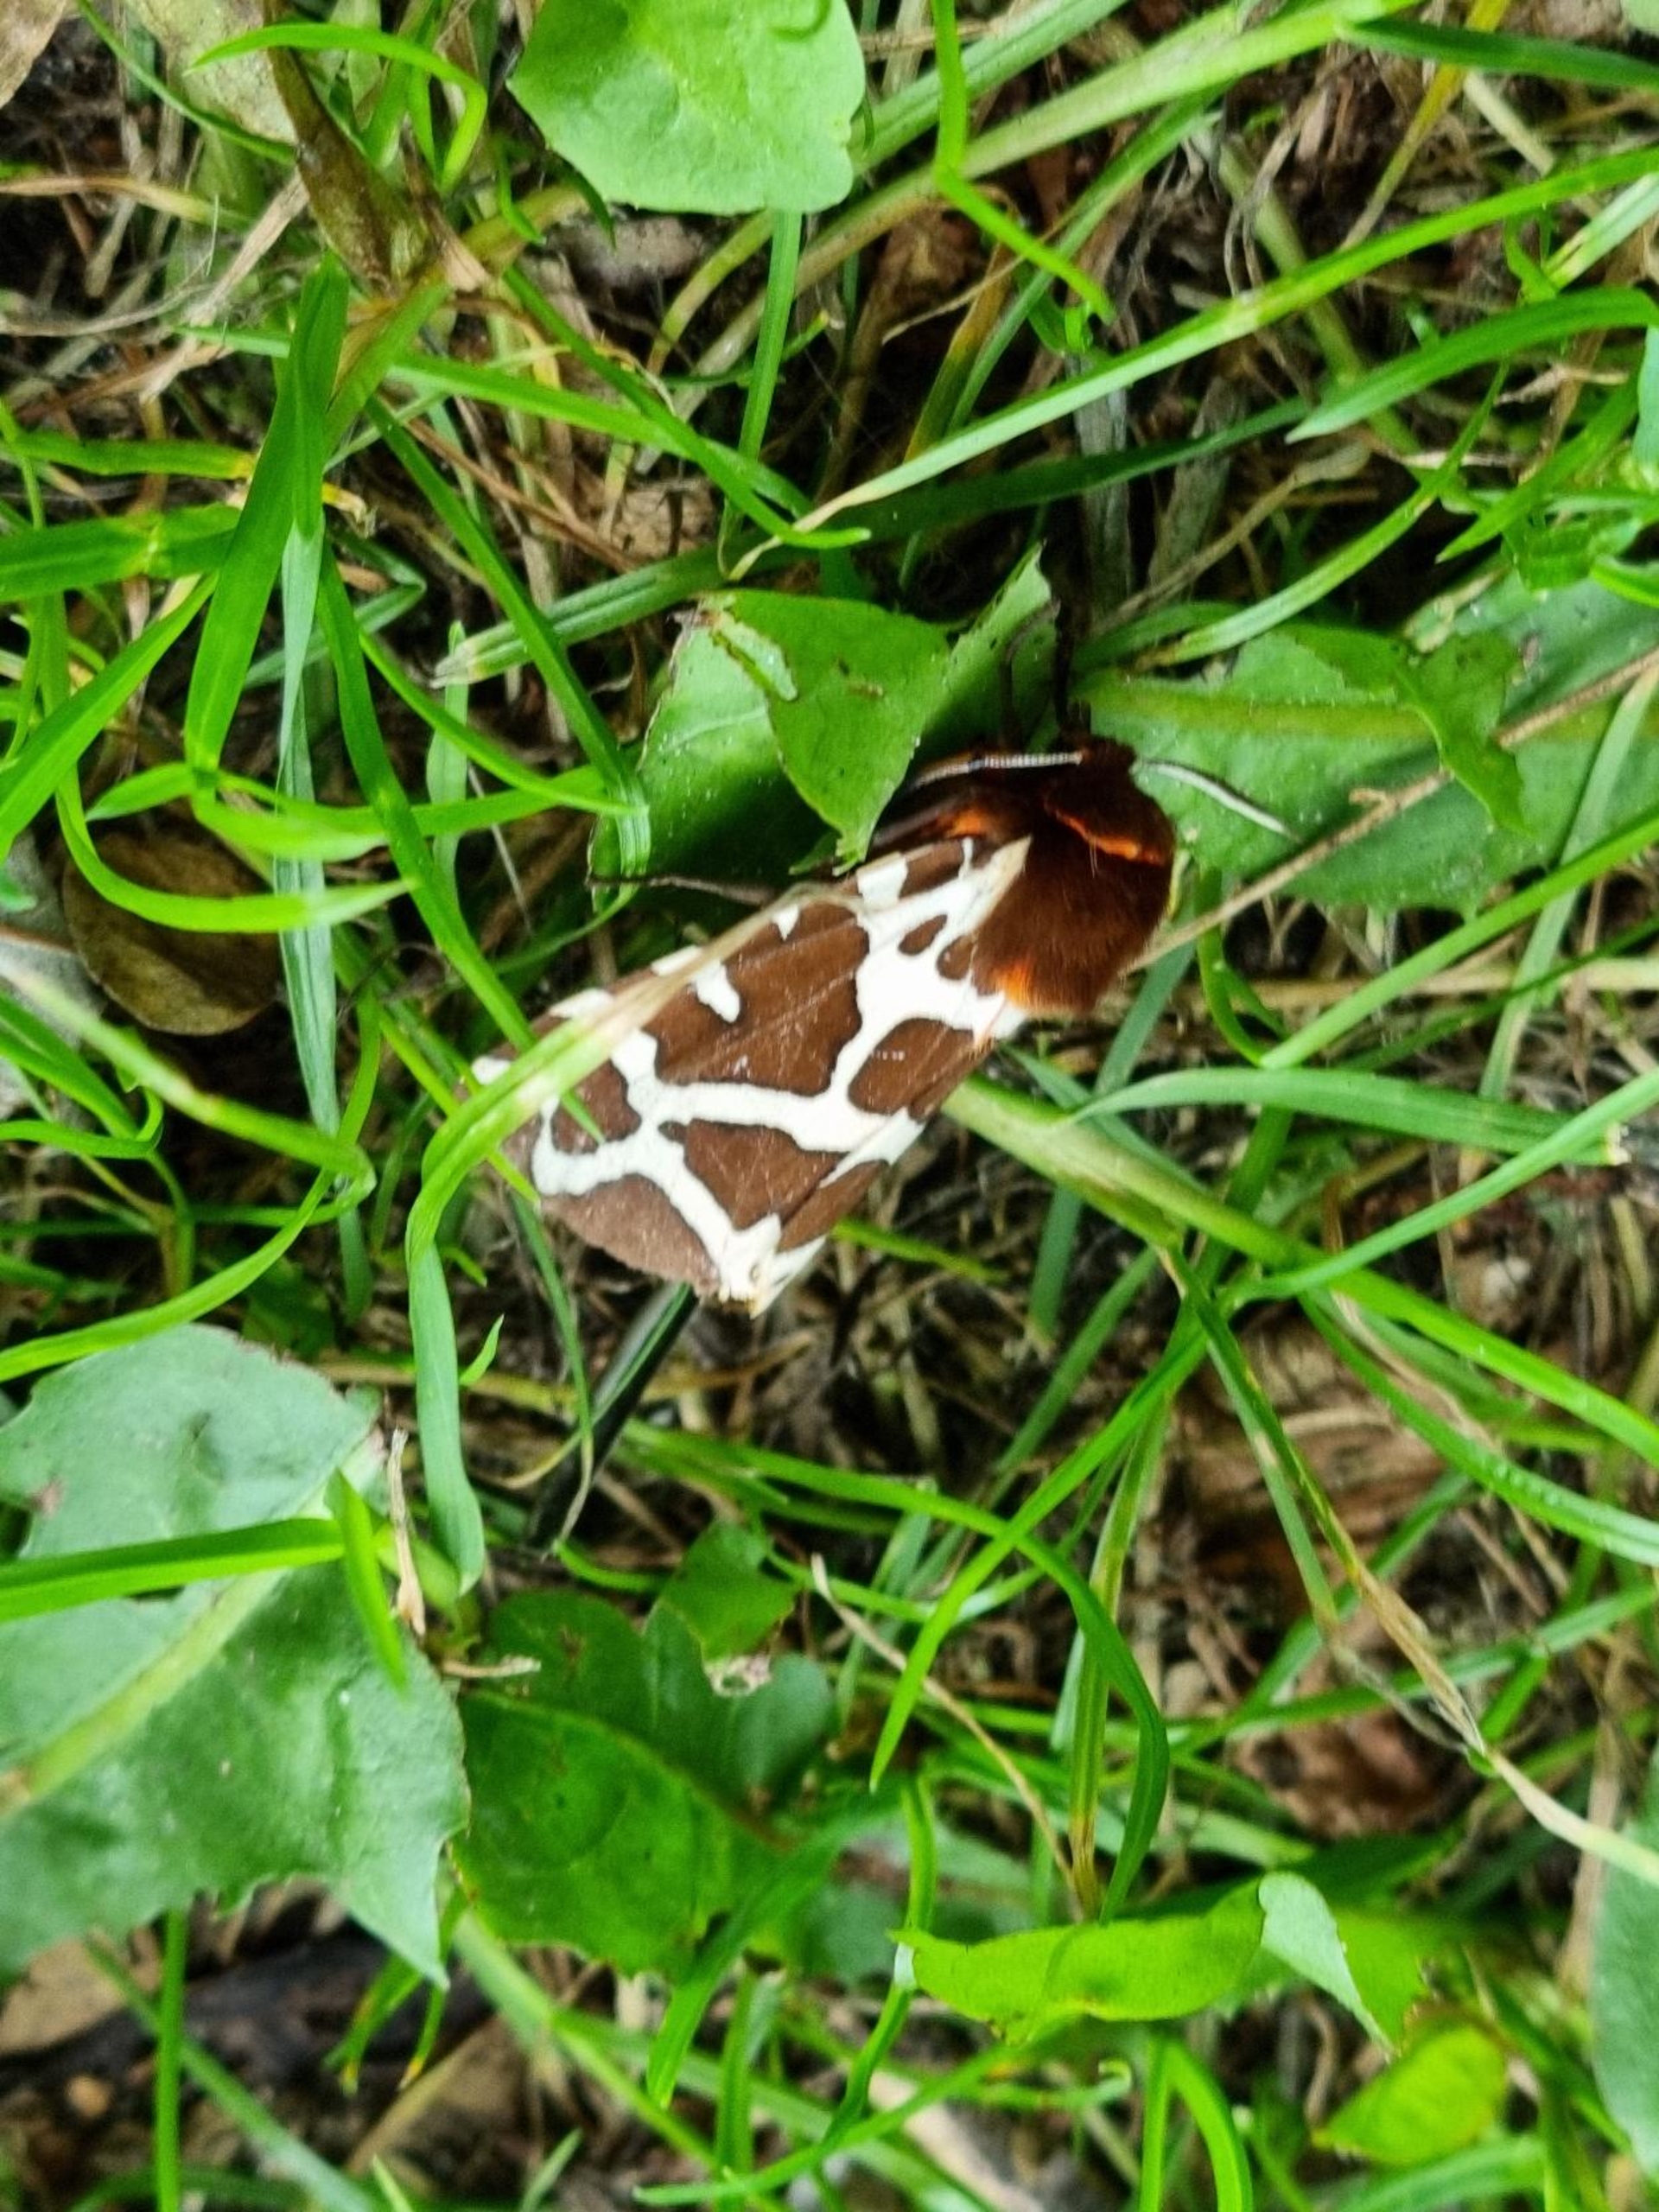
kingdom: Animalia
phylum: Arthropoda
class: Insecta
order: Lepidoptera
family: Erebidae
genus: Arctia
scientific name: Arctia caja
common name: Brun bjørn
